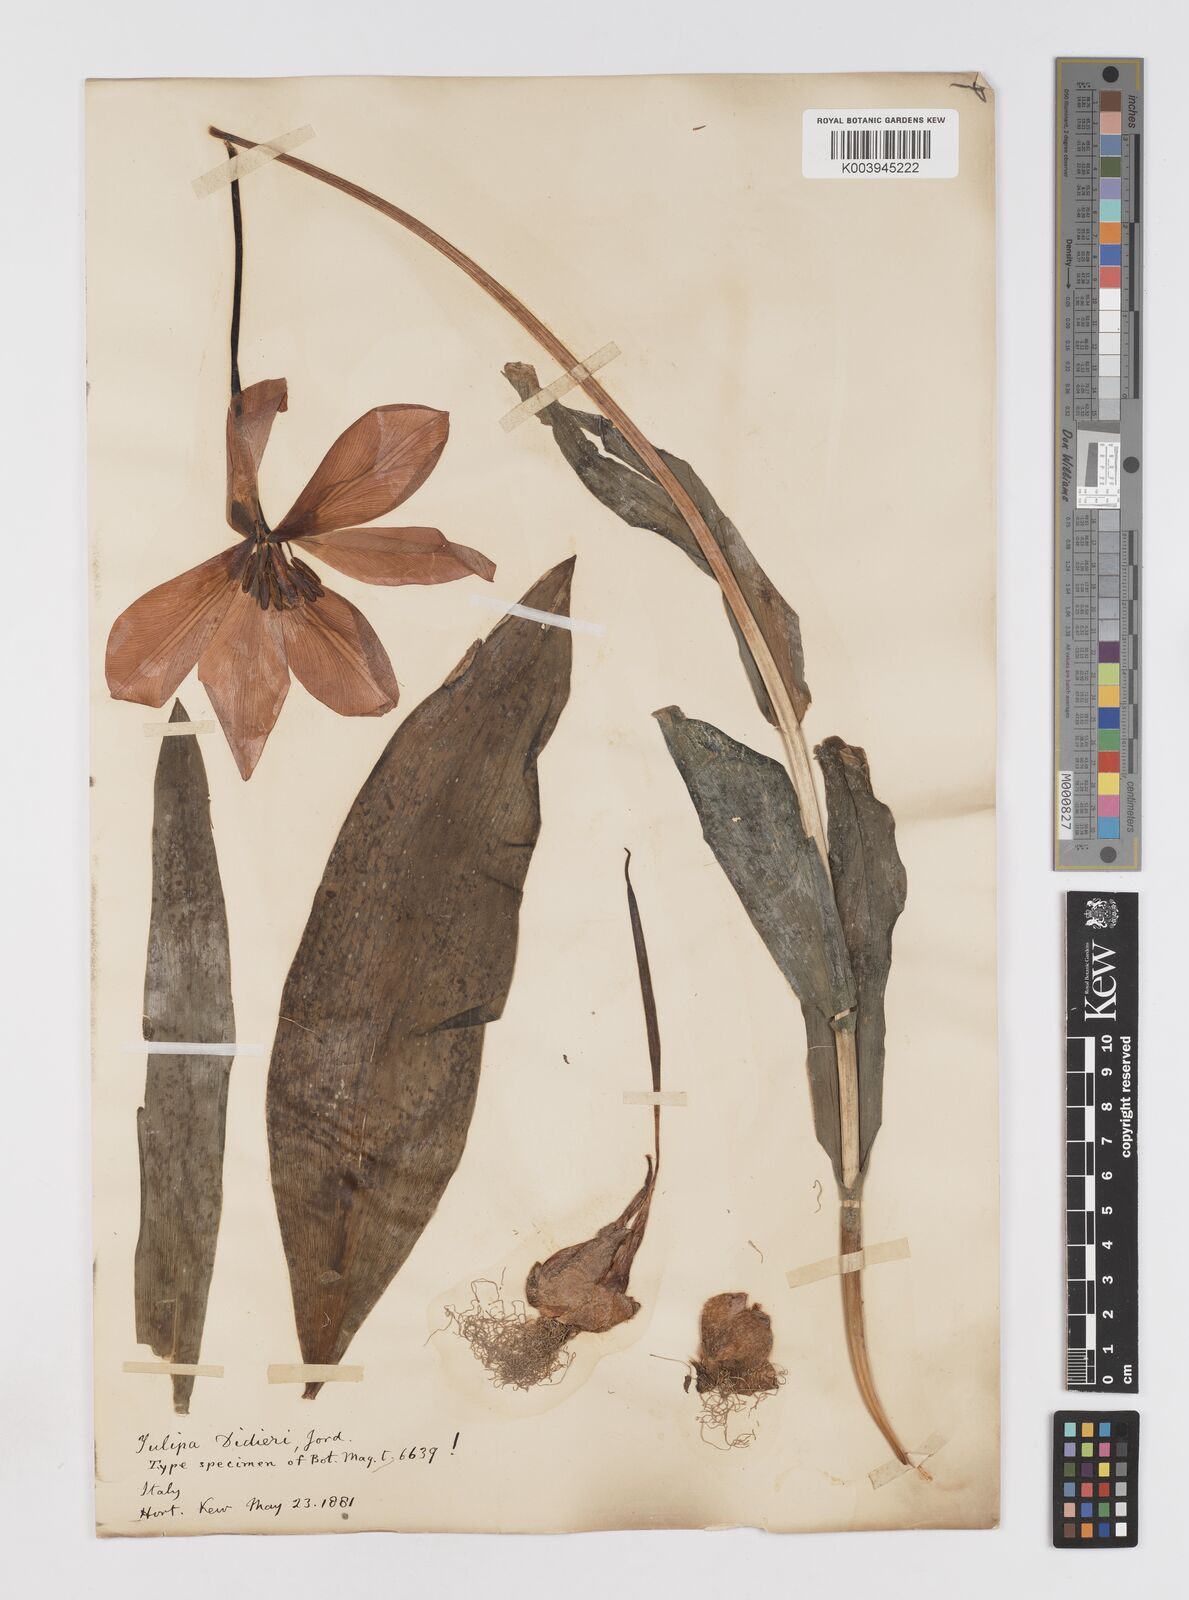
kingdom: Plantae
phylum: Tracheophyta
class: Liliopsida
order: Liliales
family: Liliaceae
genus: Tulipa
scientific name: Tulipa gesneriana
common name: Garden tulip
